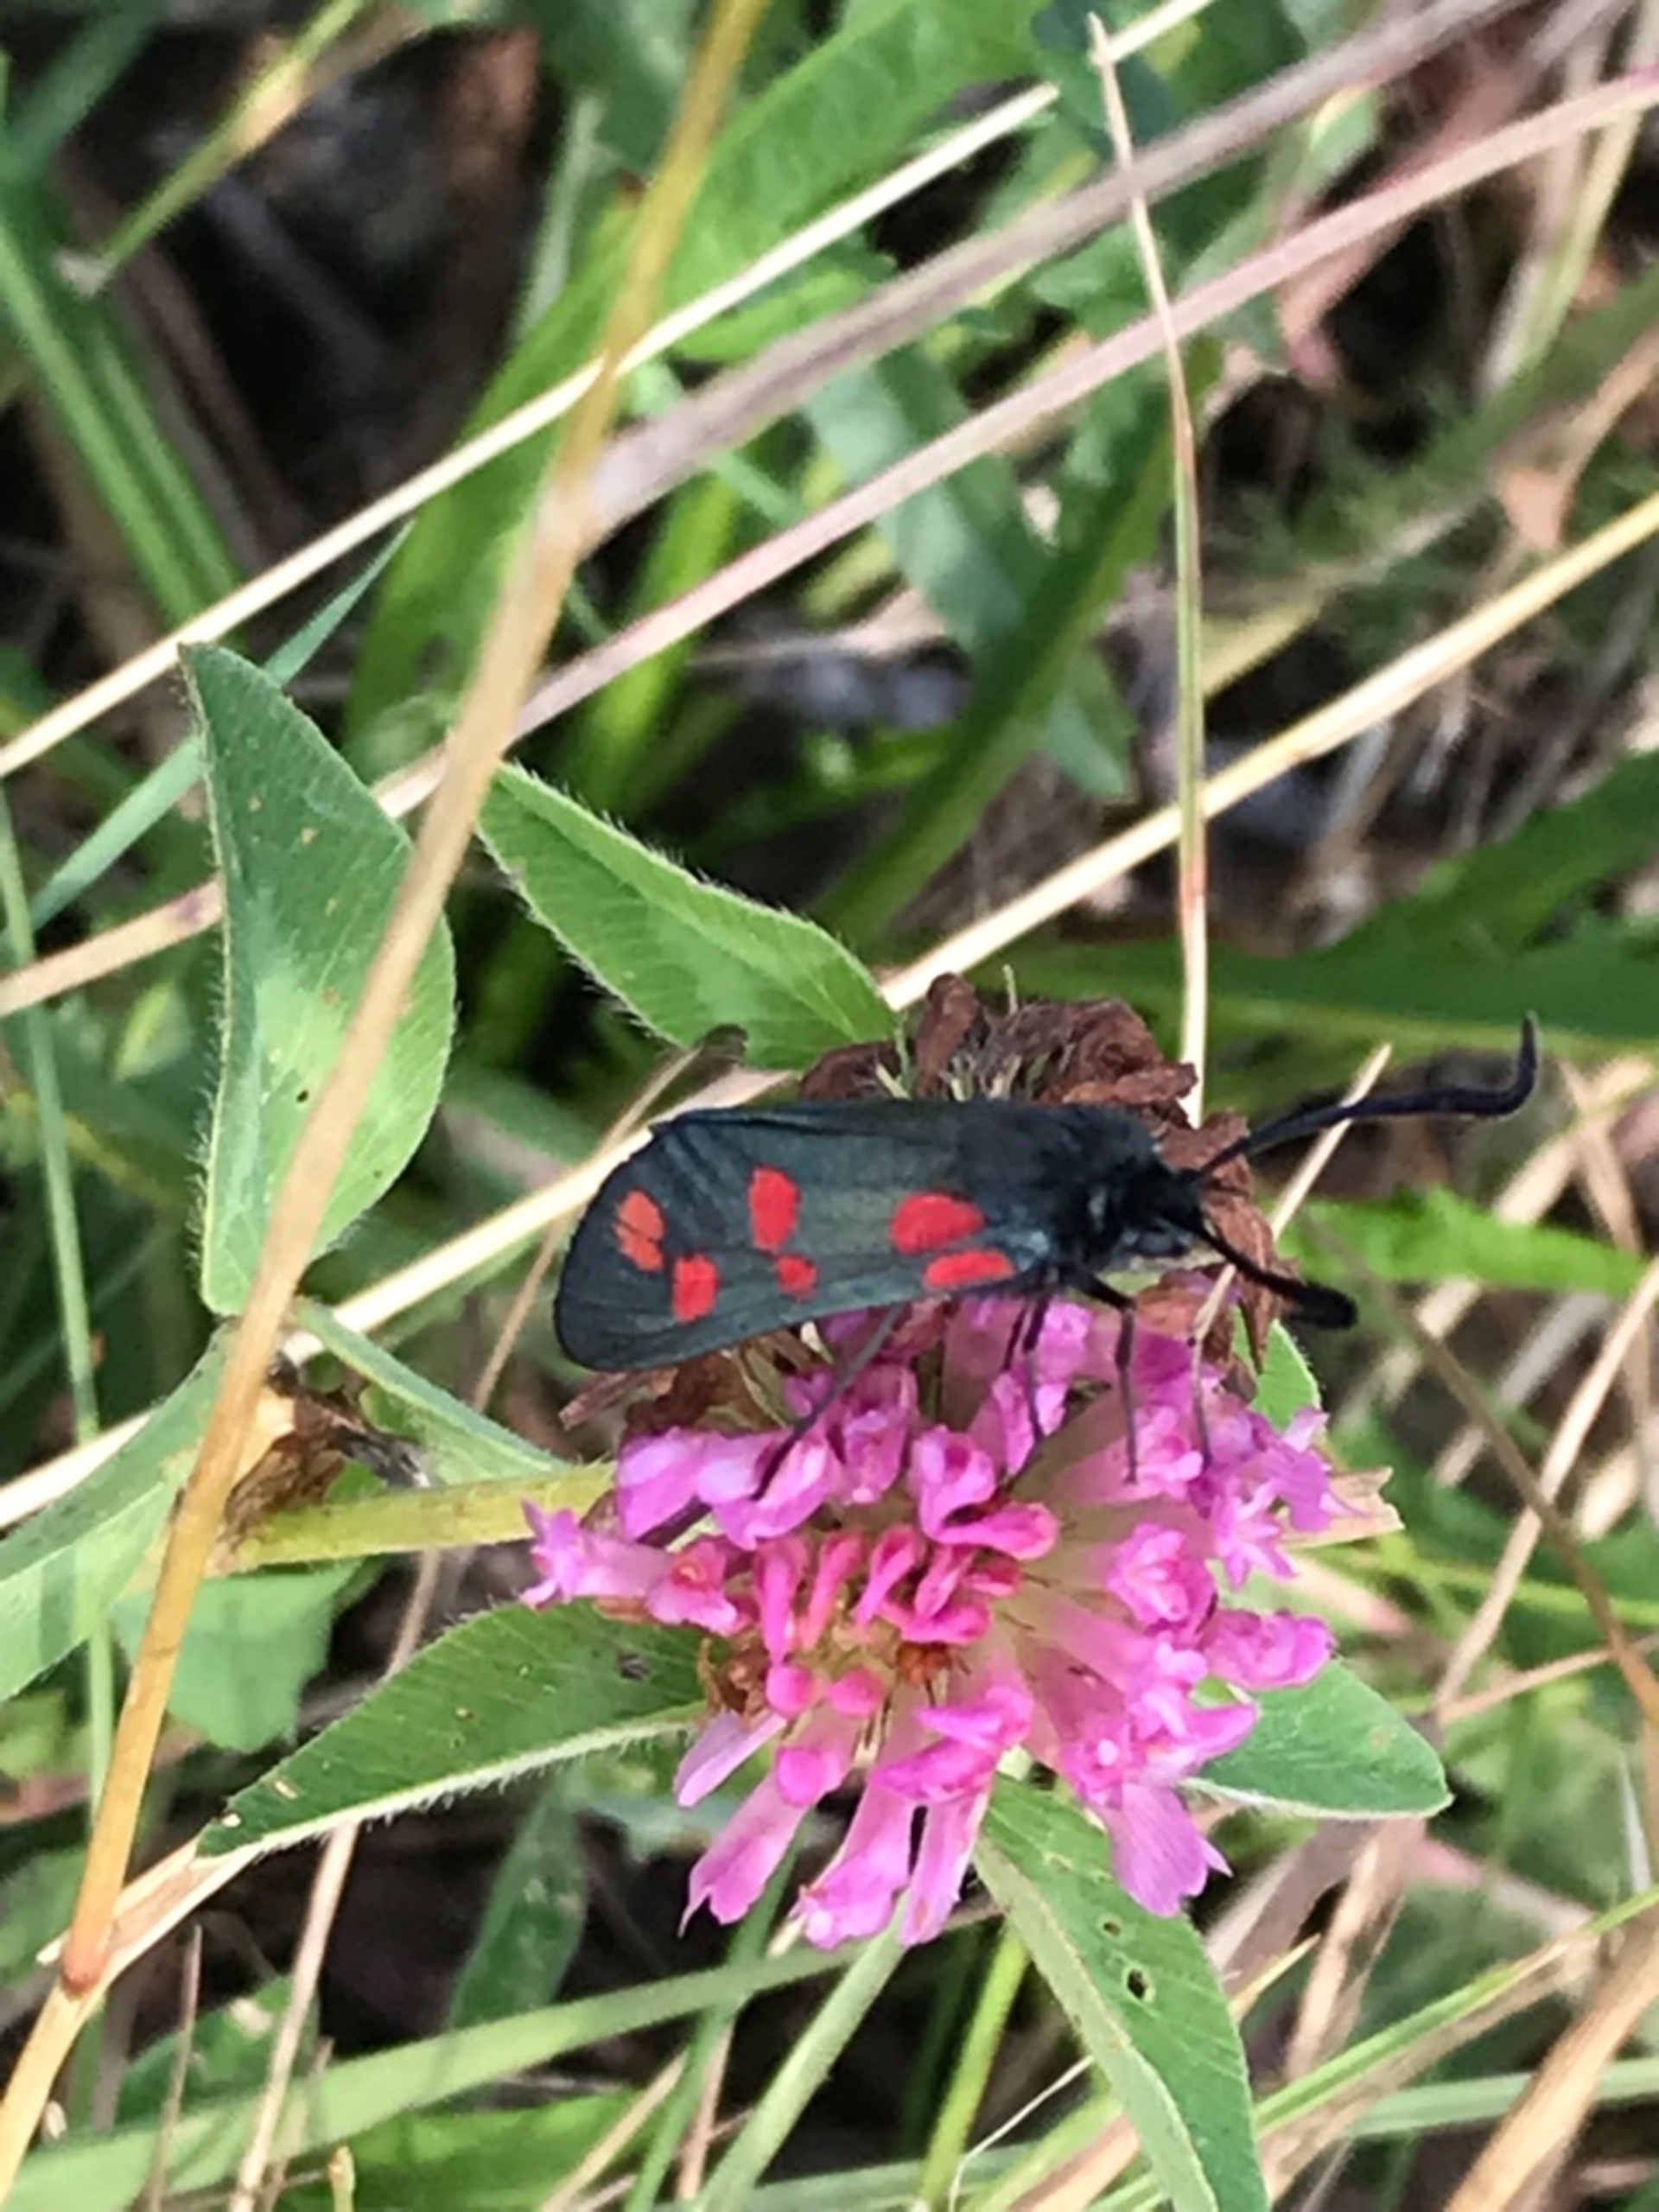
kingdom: Animalia
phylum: Arthropoda
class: Insecta
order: Lepidoptera
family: Zygaenidae
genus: Zygaena
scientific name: Zygaena filipendulae
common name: Seksplettet køllesværmer
